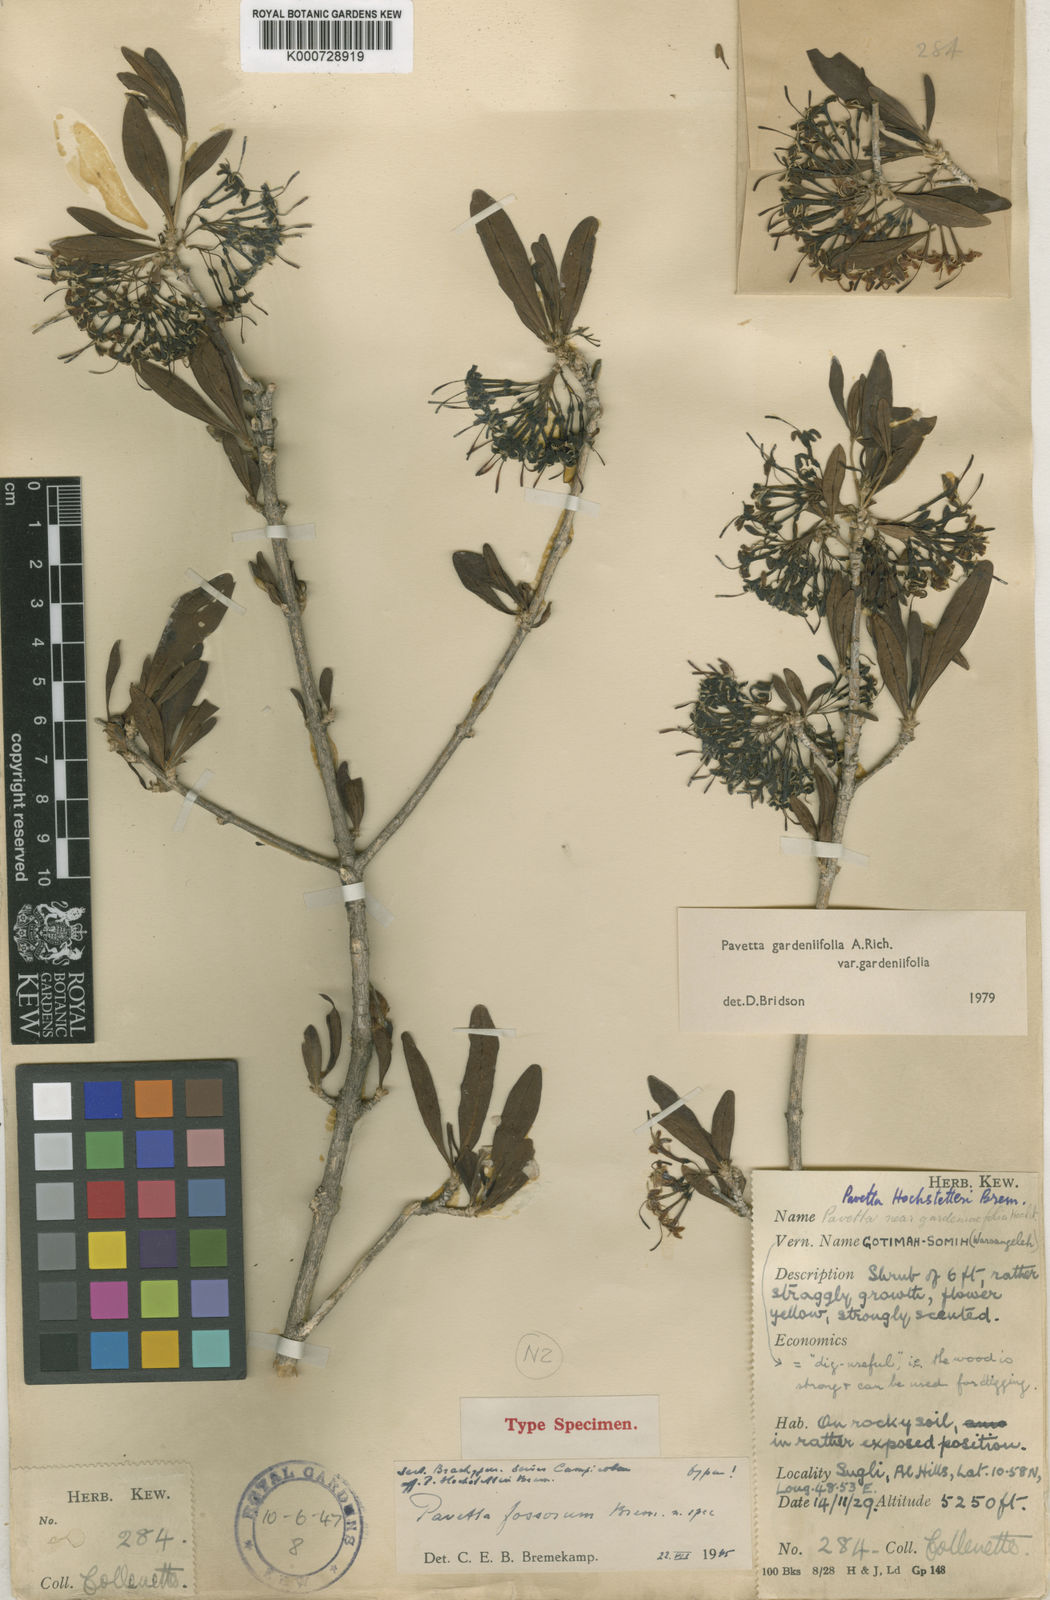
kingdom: Plantae
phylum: Tracheophyta
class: Magnoliopsida
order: Gentianales
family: Rubiaceae
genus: Pavetta
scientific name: Pavetta gardeniifolia
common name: Common brides-bush
